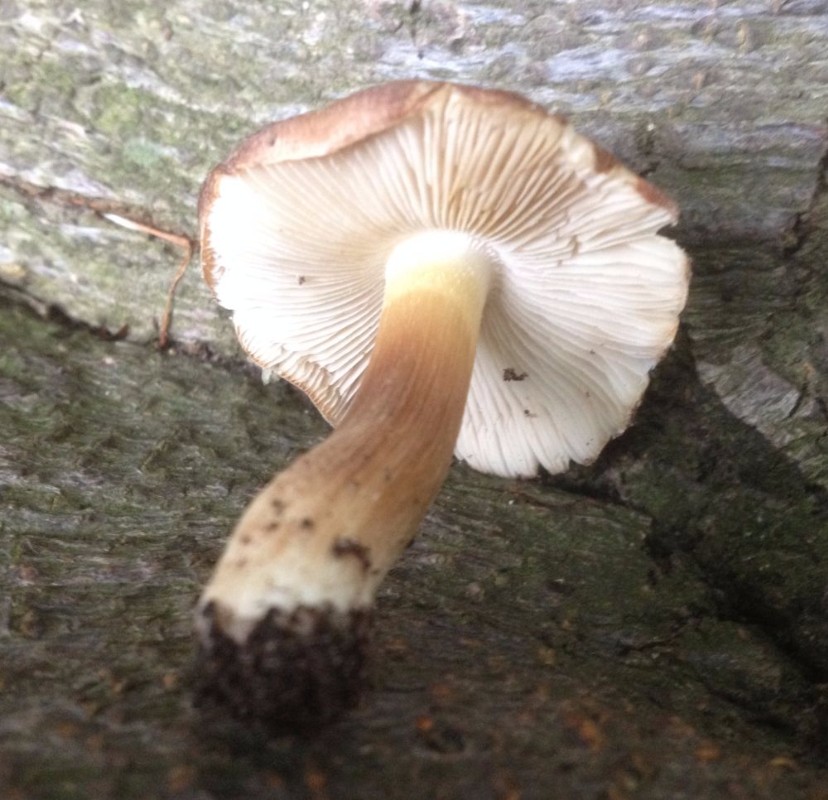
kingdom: Fungi
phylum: Basidiomycota
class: Agaricomycetes
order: Agaricales
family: Inocybaceae
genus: Inocybe
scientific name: Inocybe
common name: trævlhat
